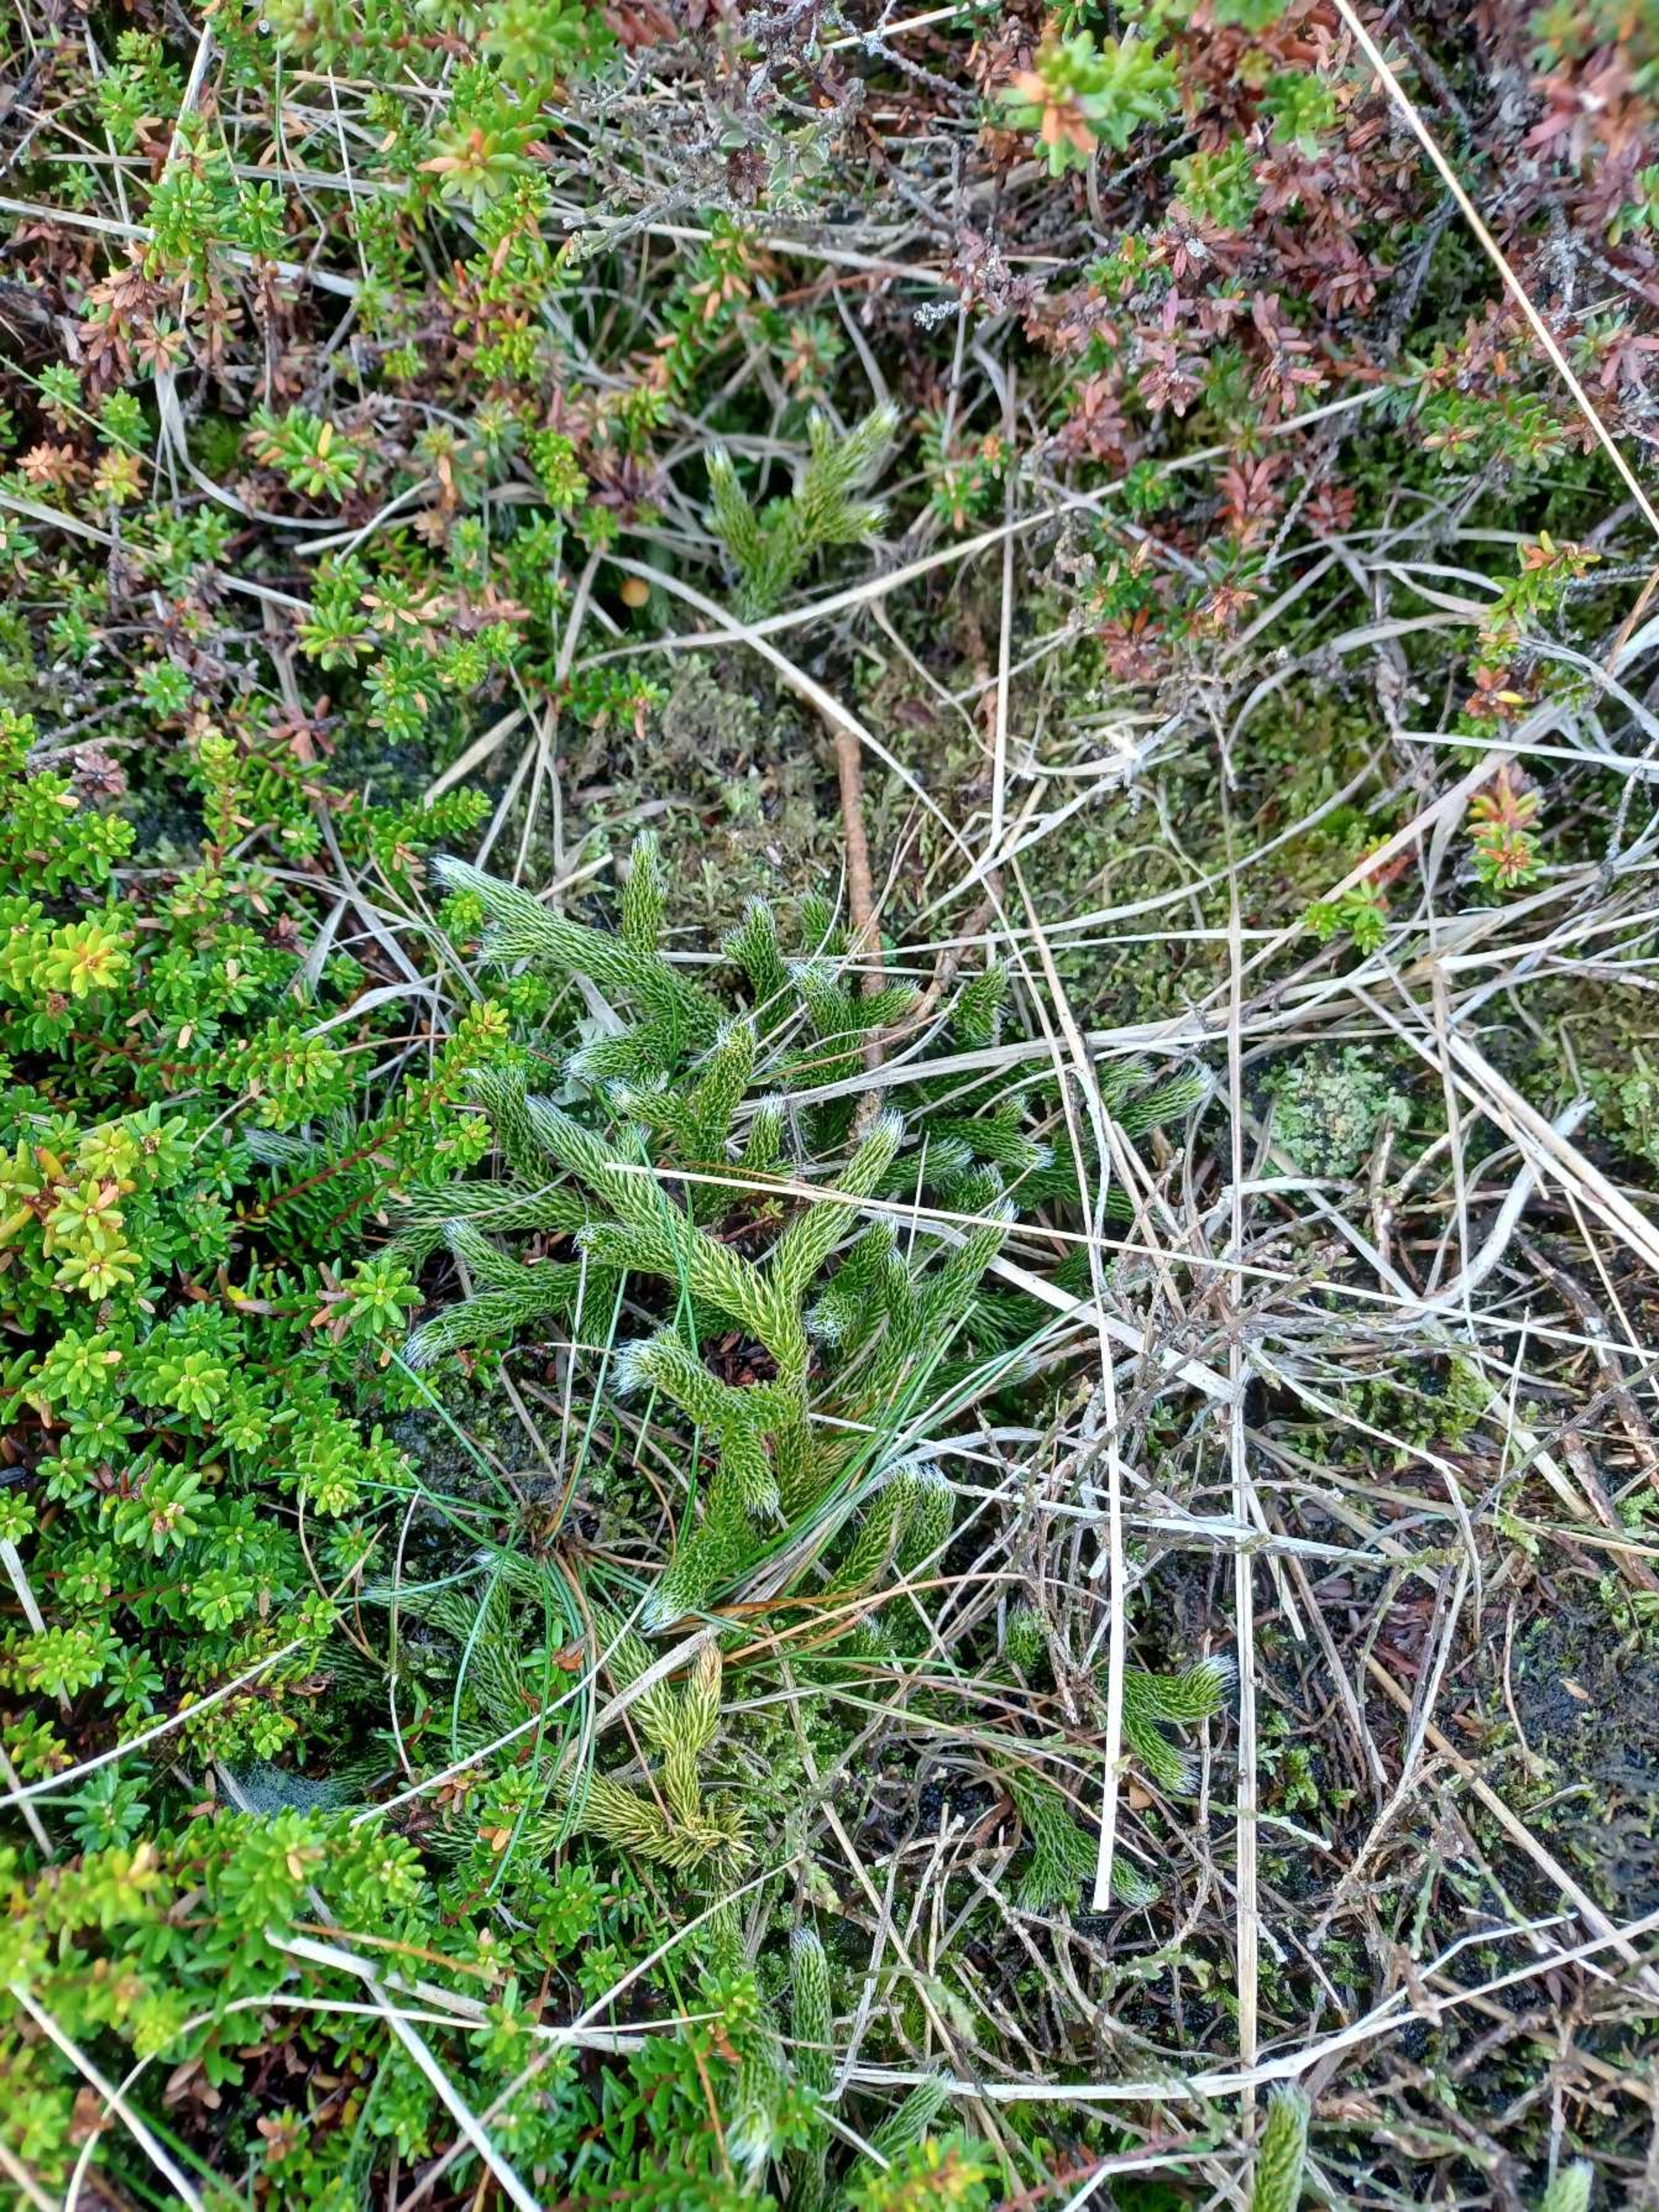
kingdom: Plantae
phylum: Tracheophyta
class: Lycopodiopsida
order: Lycopodiales
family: Lycopodiaceae
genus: Lycopodium
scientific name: Lycopodium clavatum
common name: Almindelig ulvefod
